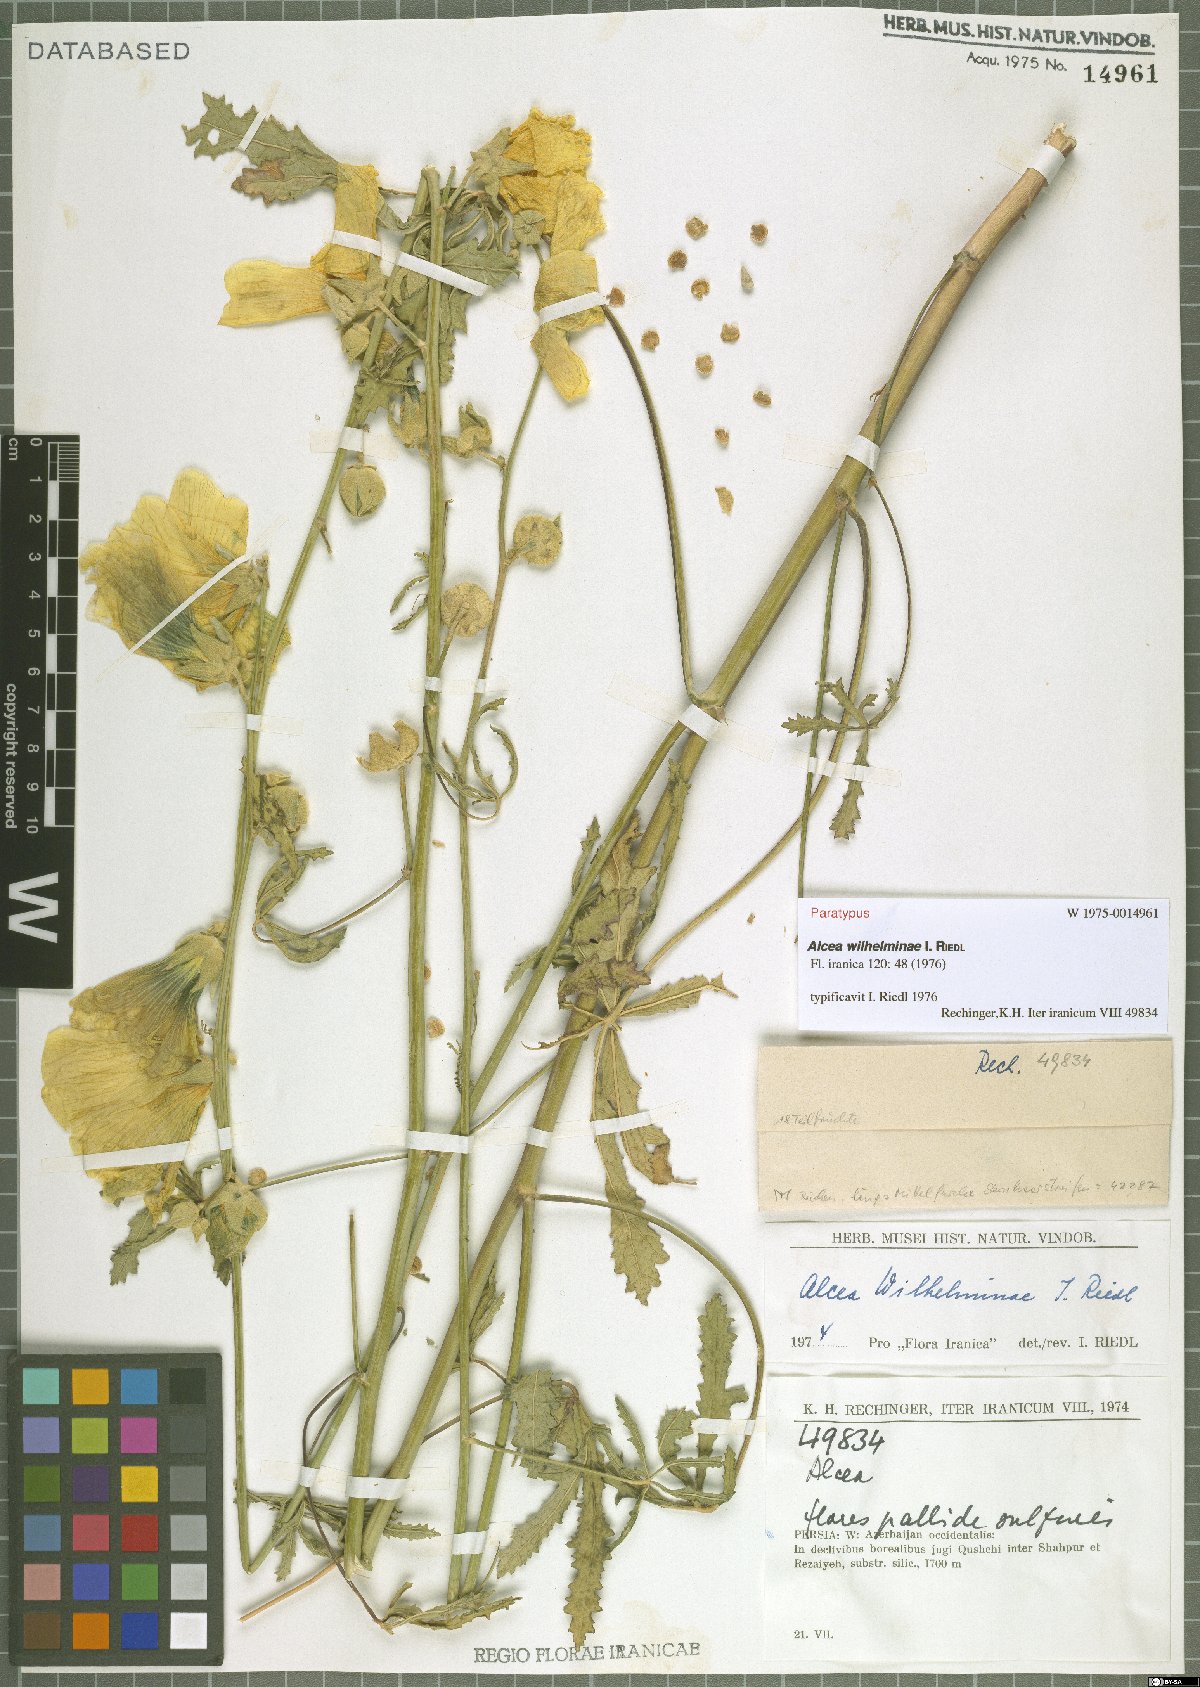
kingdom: Plantae
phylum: Tracheophyta
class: Magnoliopsida
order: Malvales
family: Malvaceae
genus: Alcea
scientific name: Alcea wilhelminae
